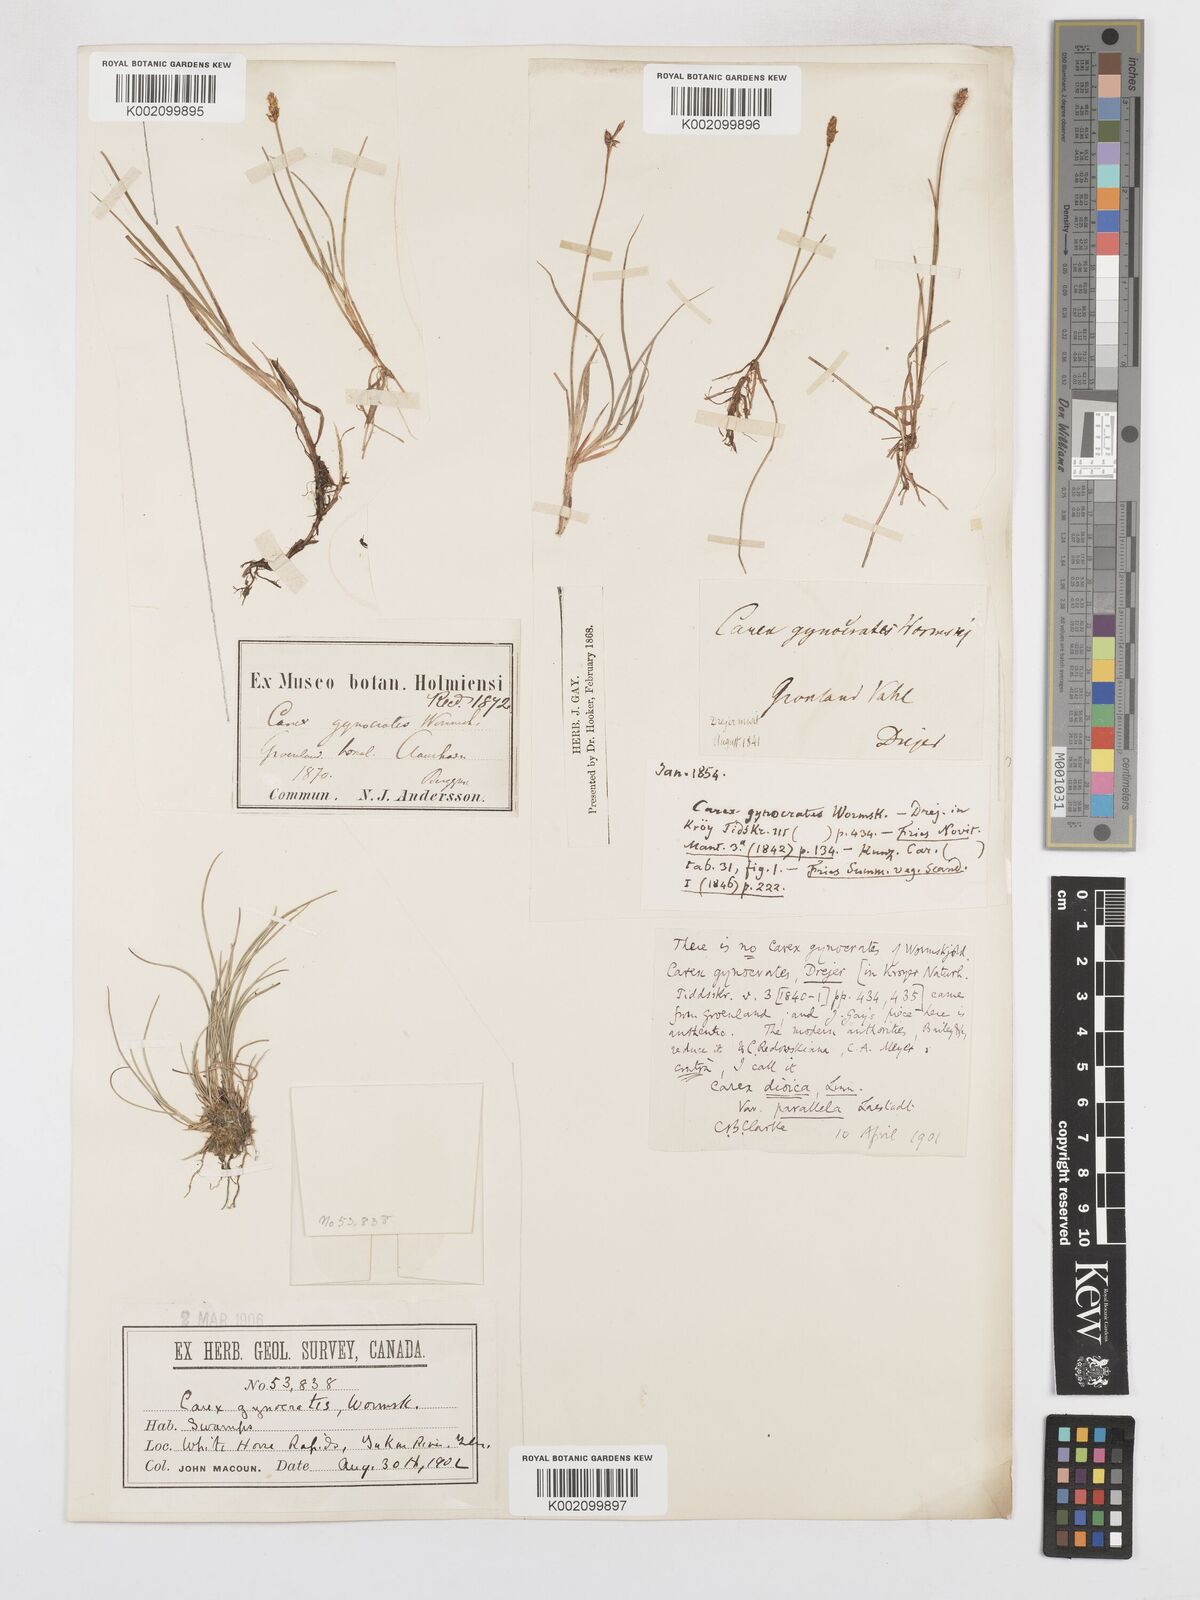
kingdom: Plantae
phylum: Tracheophyta
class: Liliopsida
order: Poales
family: Cyperaceae
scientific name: Cyperaceae
